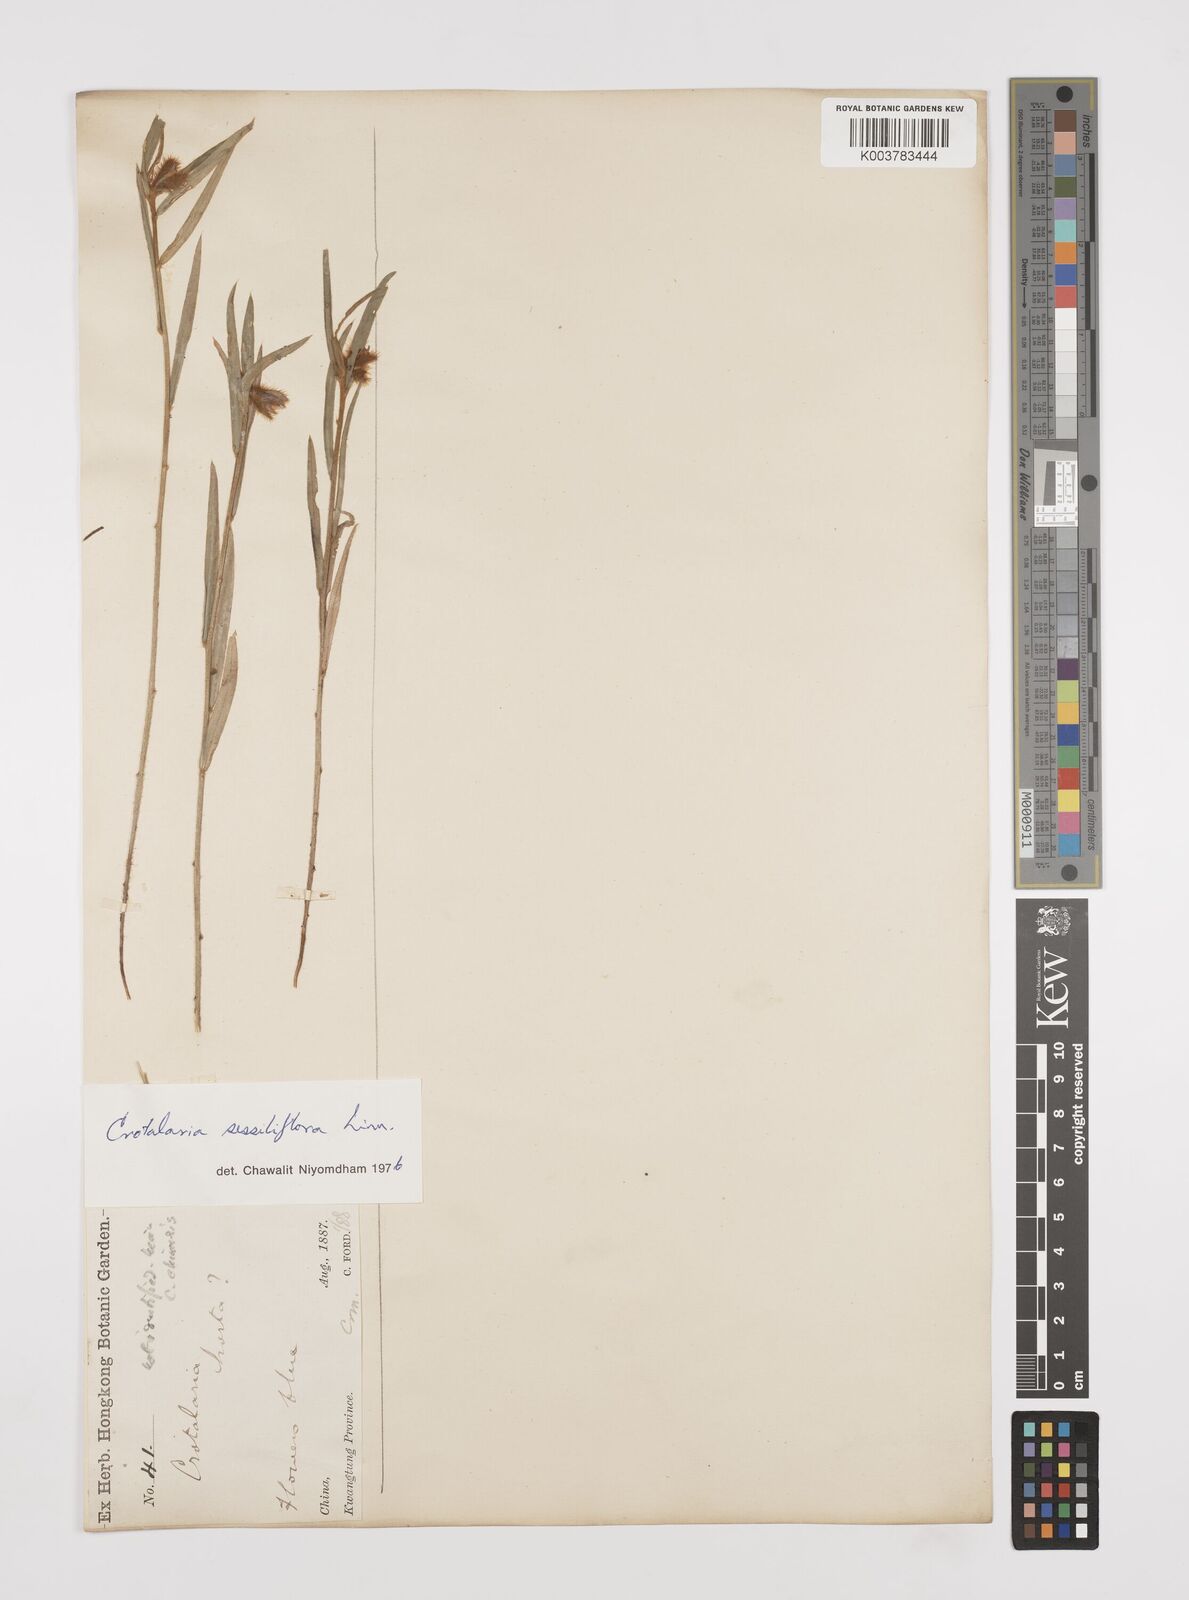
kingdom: Plantae
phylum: Tracheophyta
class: Magnoliopsida
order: Fabales
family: Fabaceae
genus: Crotalaria
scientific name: Crotalaria chinensis
